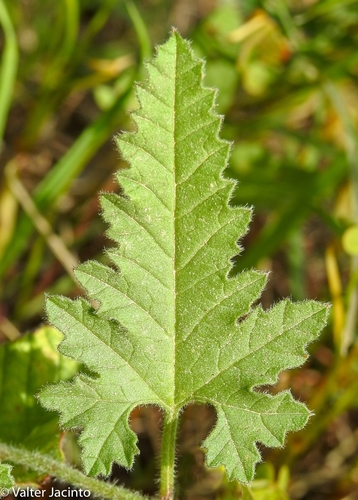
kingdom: Plantae
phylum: Tracheophyta
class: Magnoliopsida
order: Solanales
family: Convolvulaceae
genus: Convolvulus
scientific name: Convolvulus althaeoides
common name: Mallow bindweed
